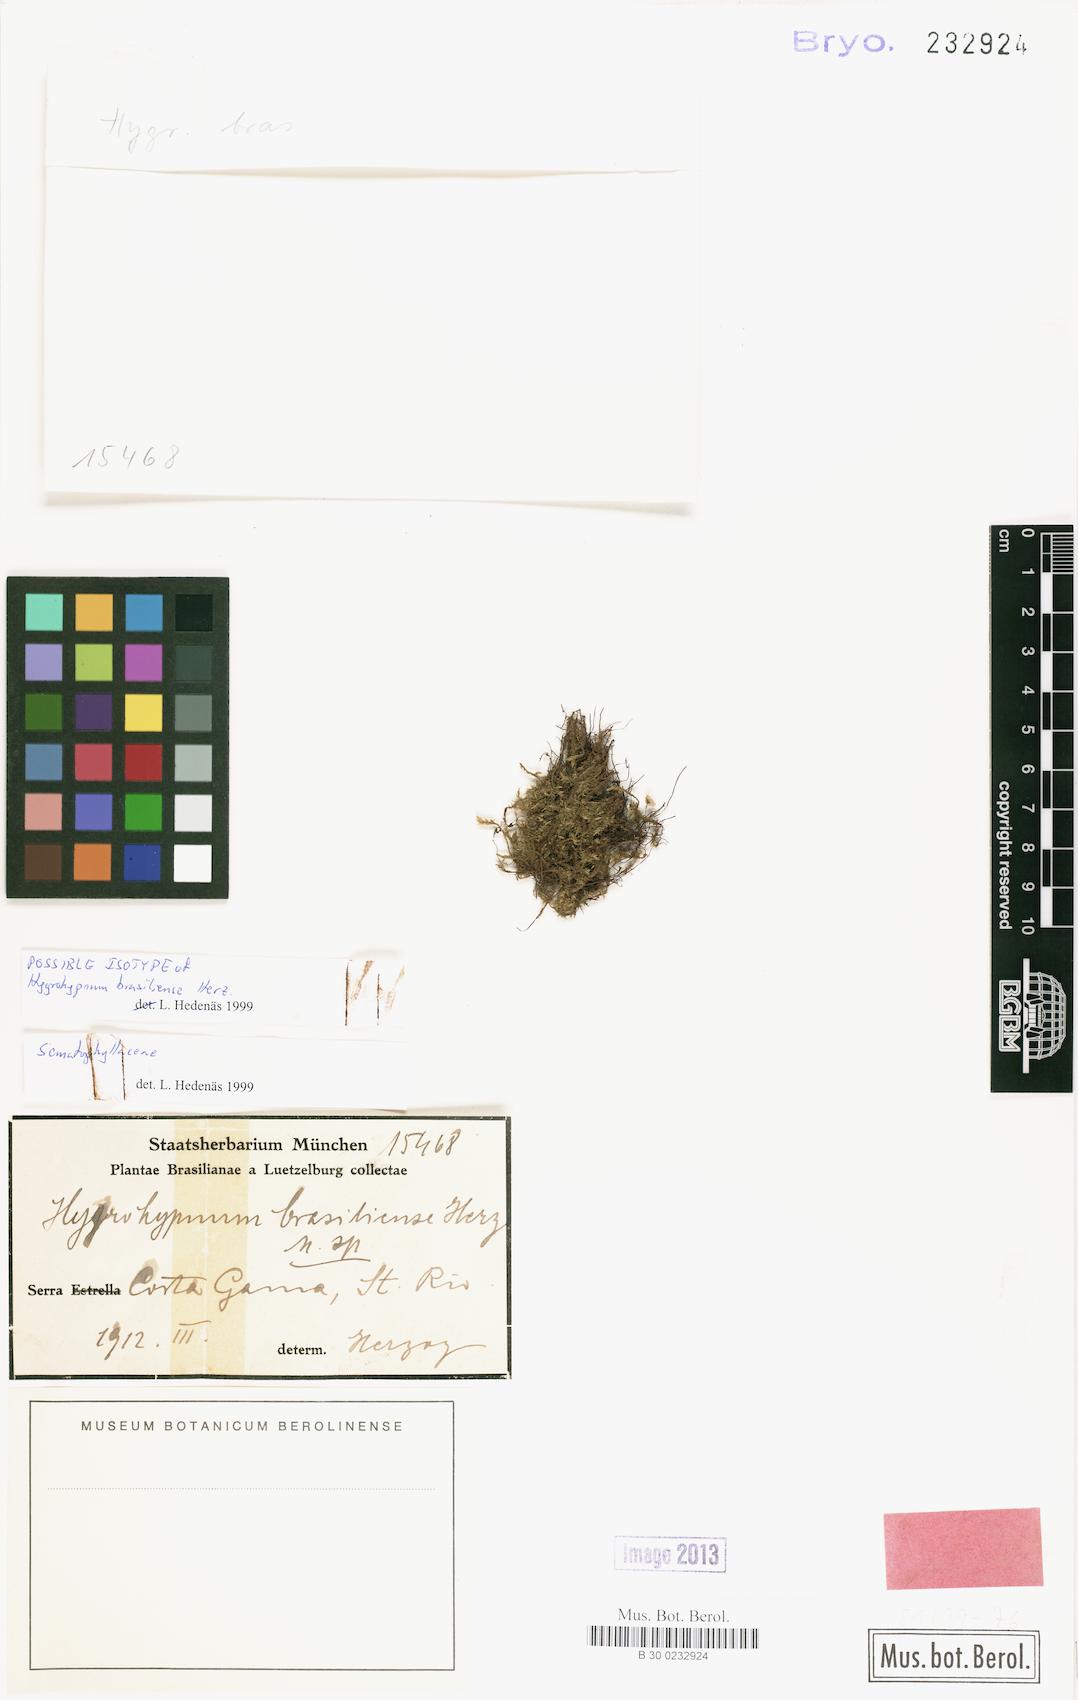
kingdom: Plantae
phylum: Bryophyta
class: Bryopsida
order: Hypnales
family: Sematophyllaceae
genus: Sematophyllum
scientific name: Sematophyllum brasiliense
